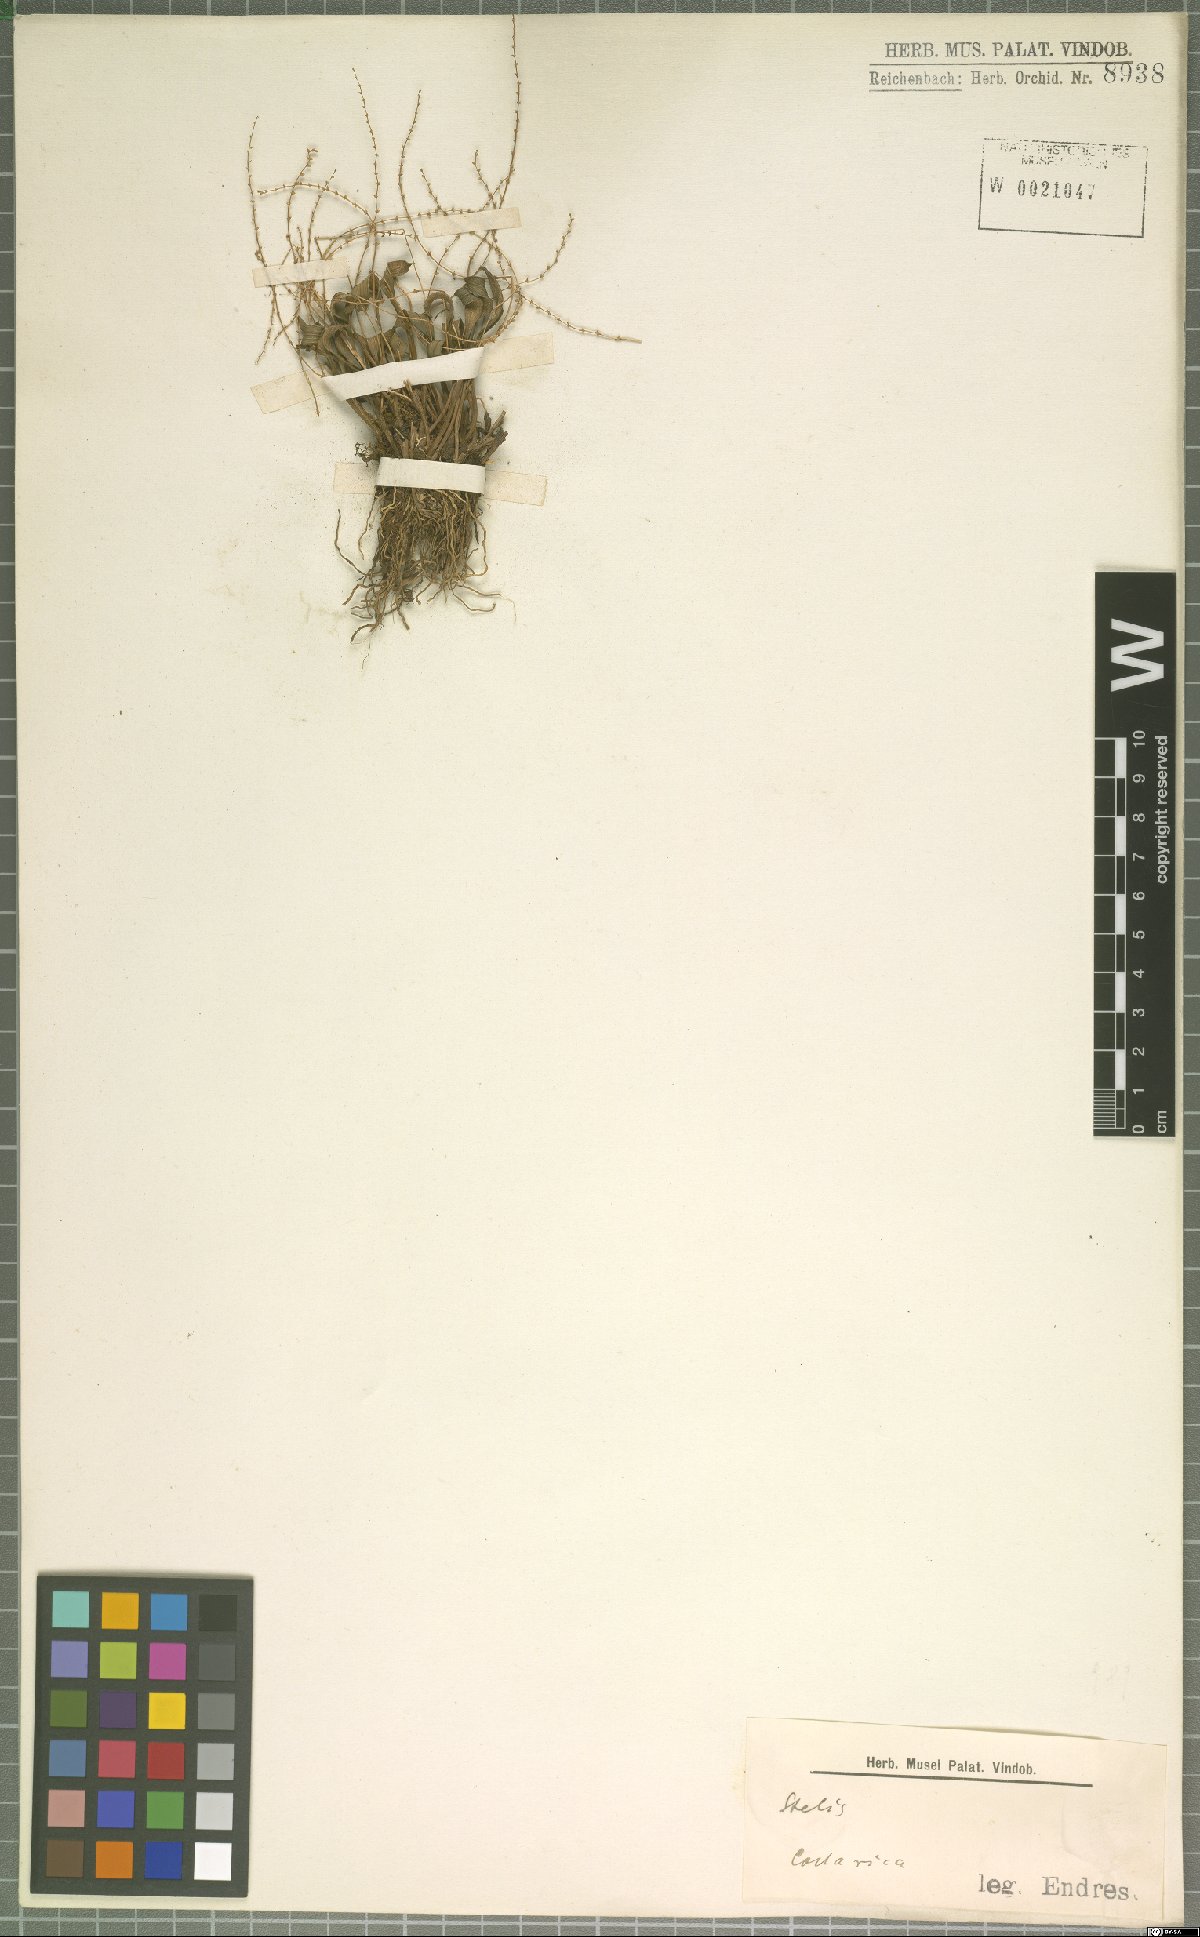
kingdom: Plantae
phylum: Tracheophyta
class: Liliopsida
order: Asparagales
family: Orchidaceae
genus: Stelis
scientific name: Stelis
